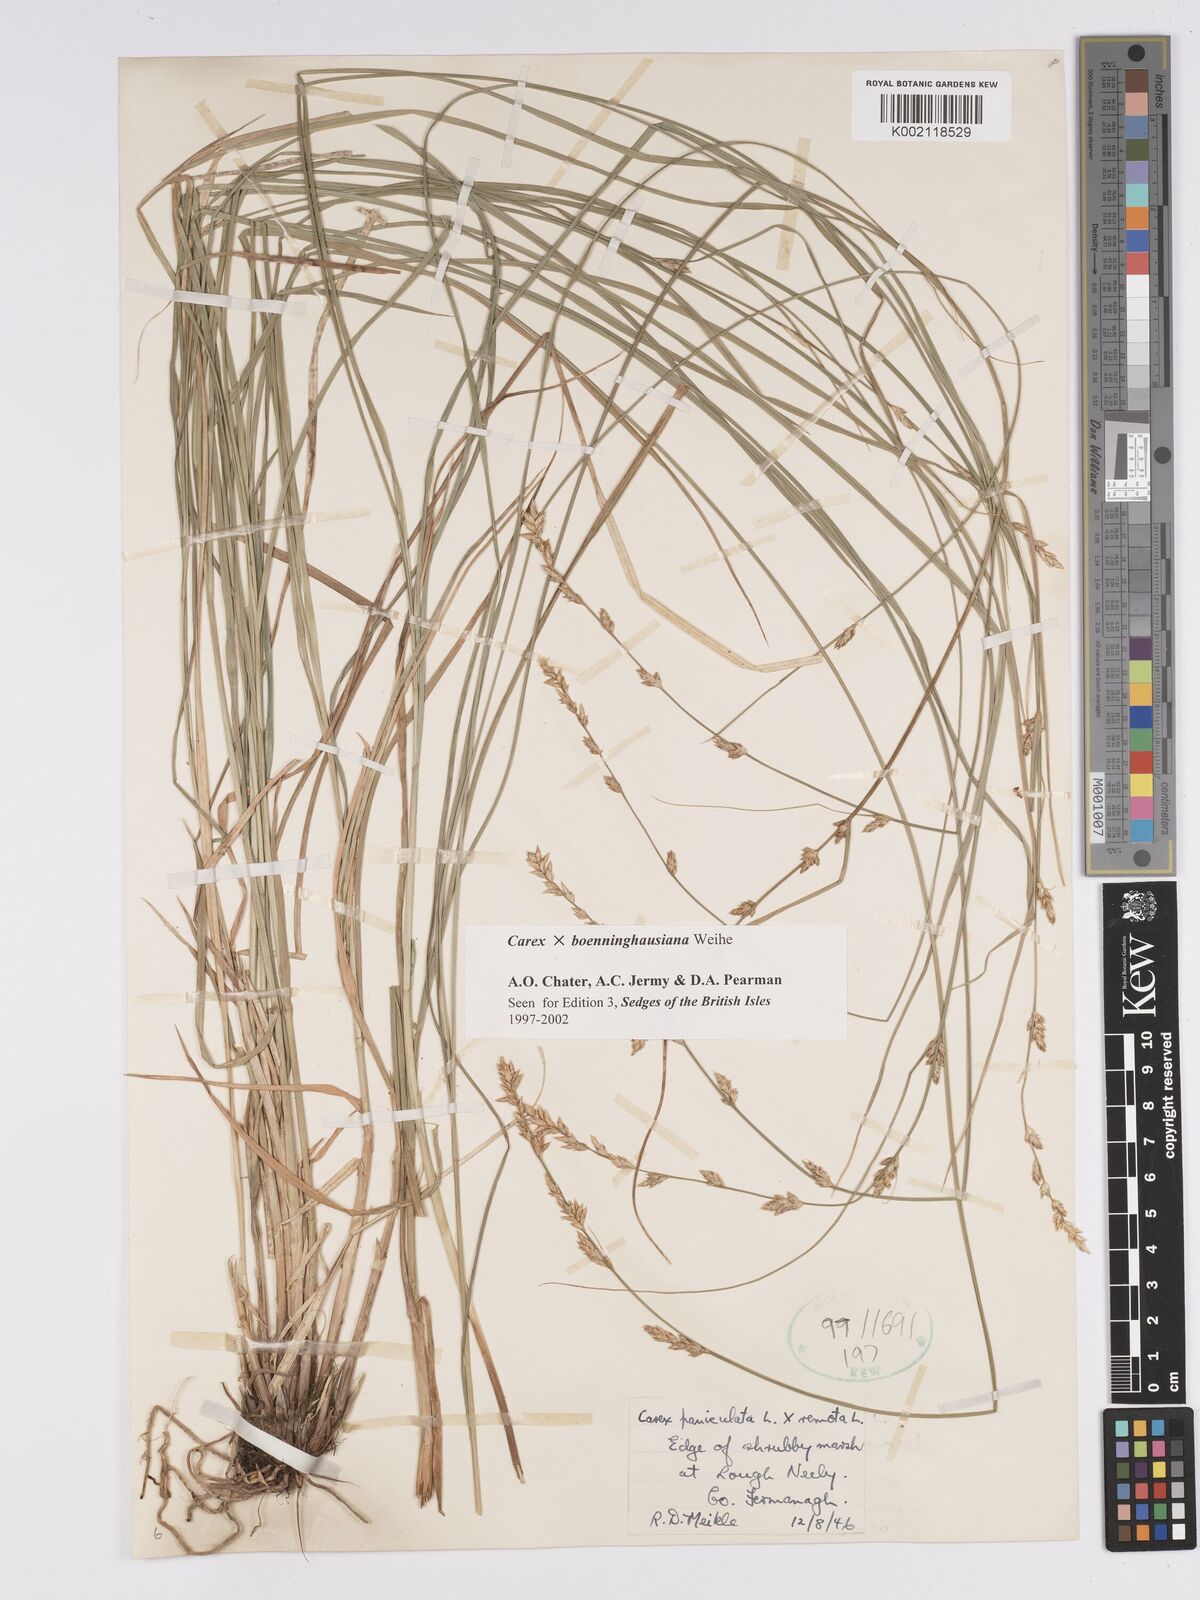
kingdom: Plantae
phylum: Tracheophyta
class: Liliopsida
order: Poales
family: Cyperaceae
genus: Carex
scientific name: Carex boenninghausiana
